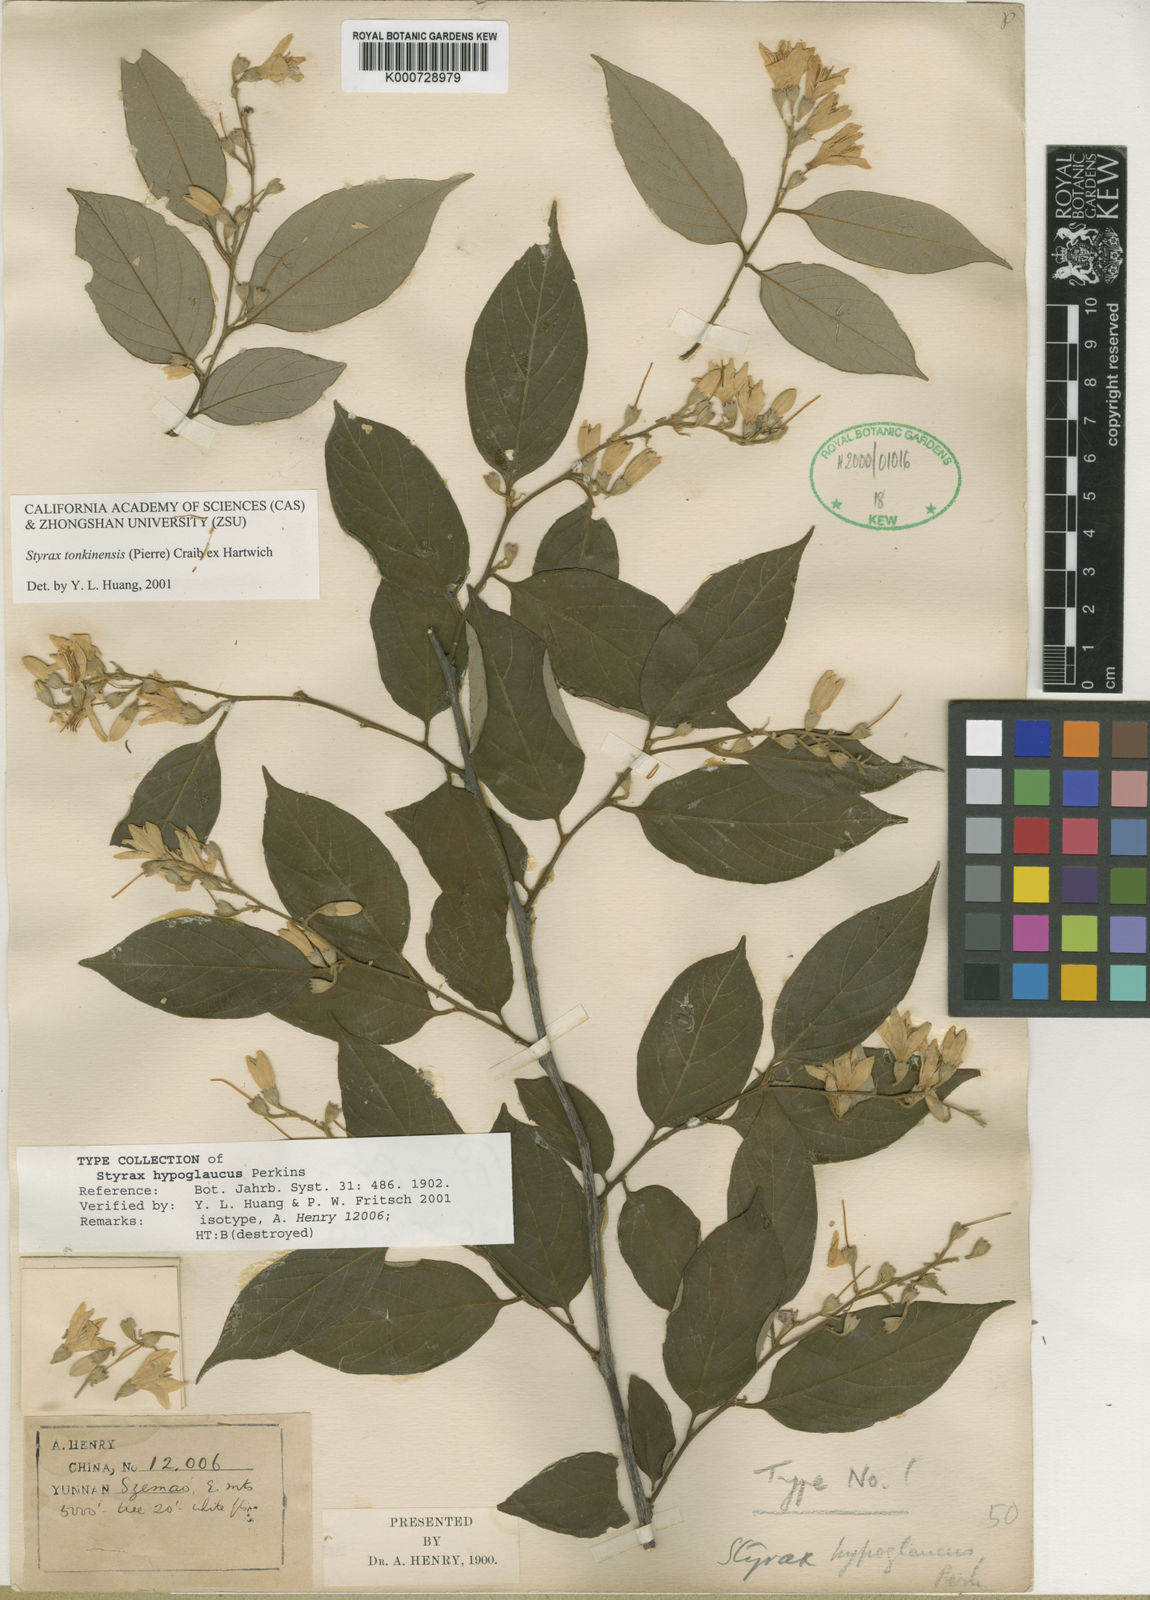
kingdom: Plantae
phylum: Tracheophyta
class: Magnoliopsida
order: Ericales
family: Styracaceae
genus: Styrax
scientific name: Styrax tonkinensis
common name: Siam benzoin
